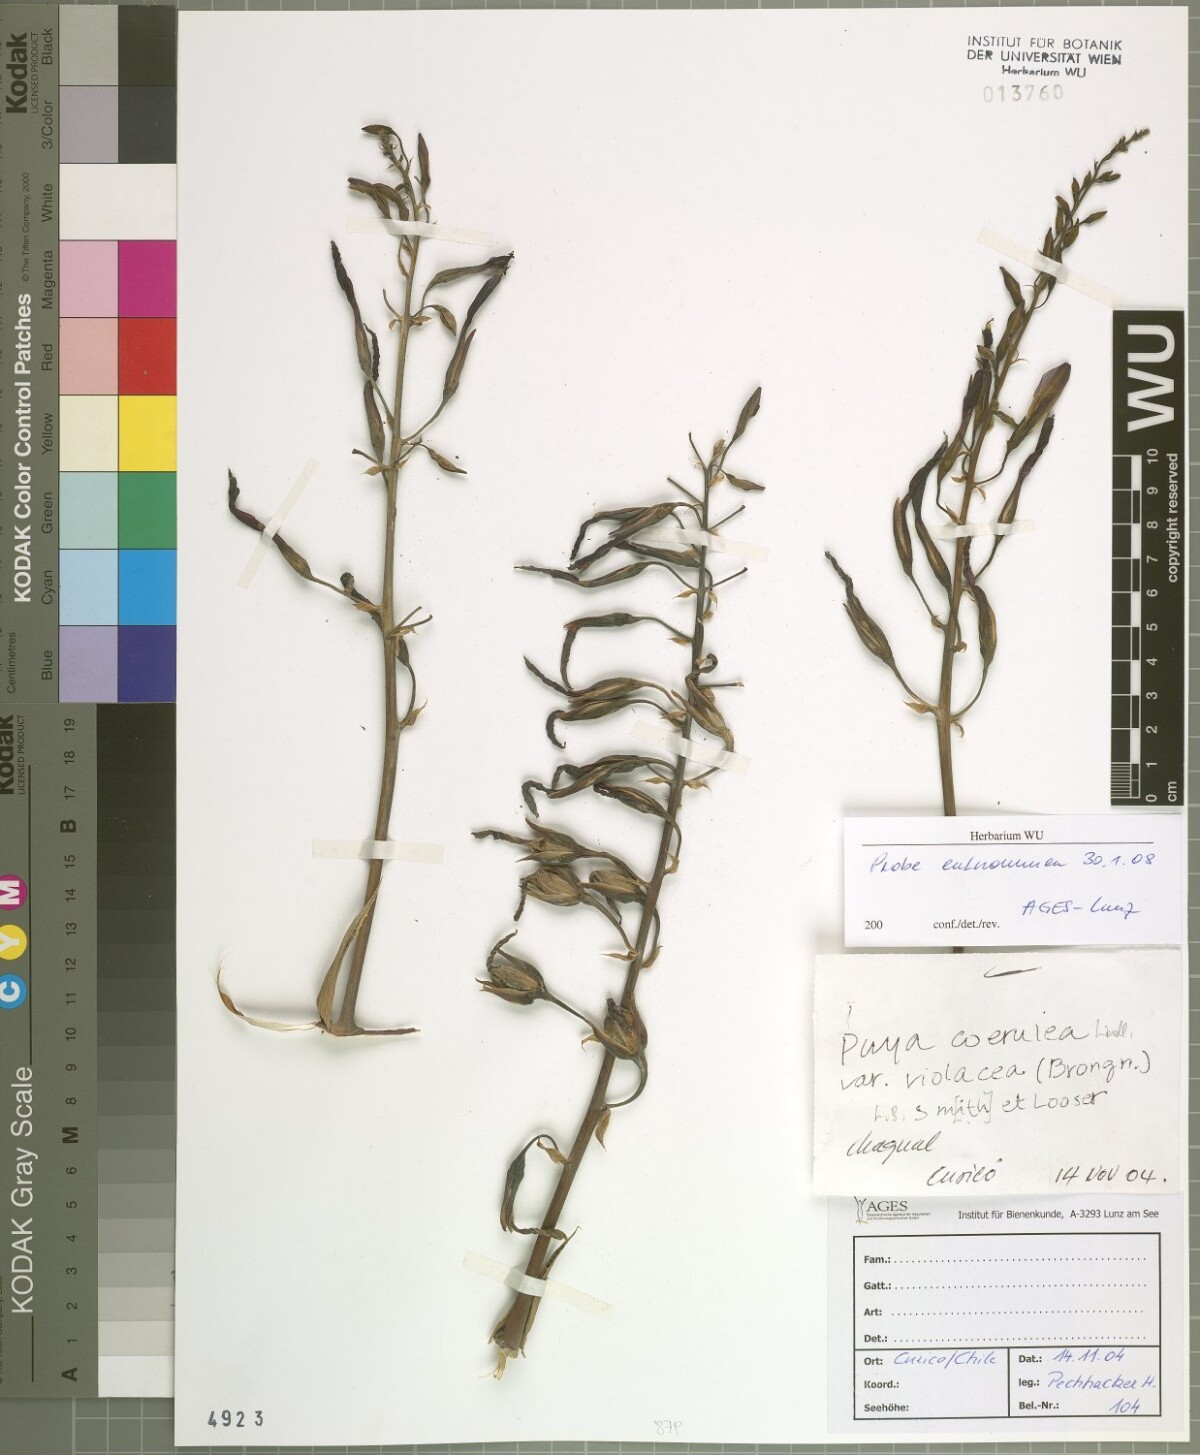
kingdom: Plantae
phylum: Tracheophyta
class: Liliopsida
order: Poales
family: Bromeliaceae
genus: Puya
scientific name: Puya coerulea
